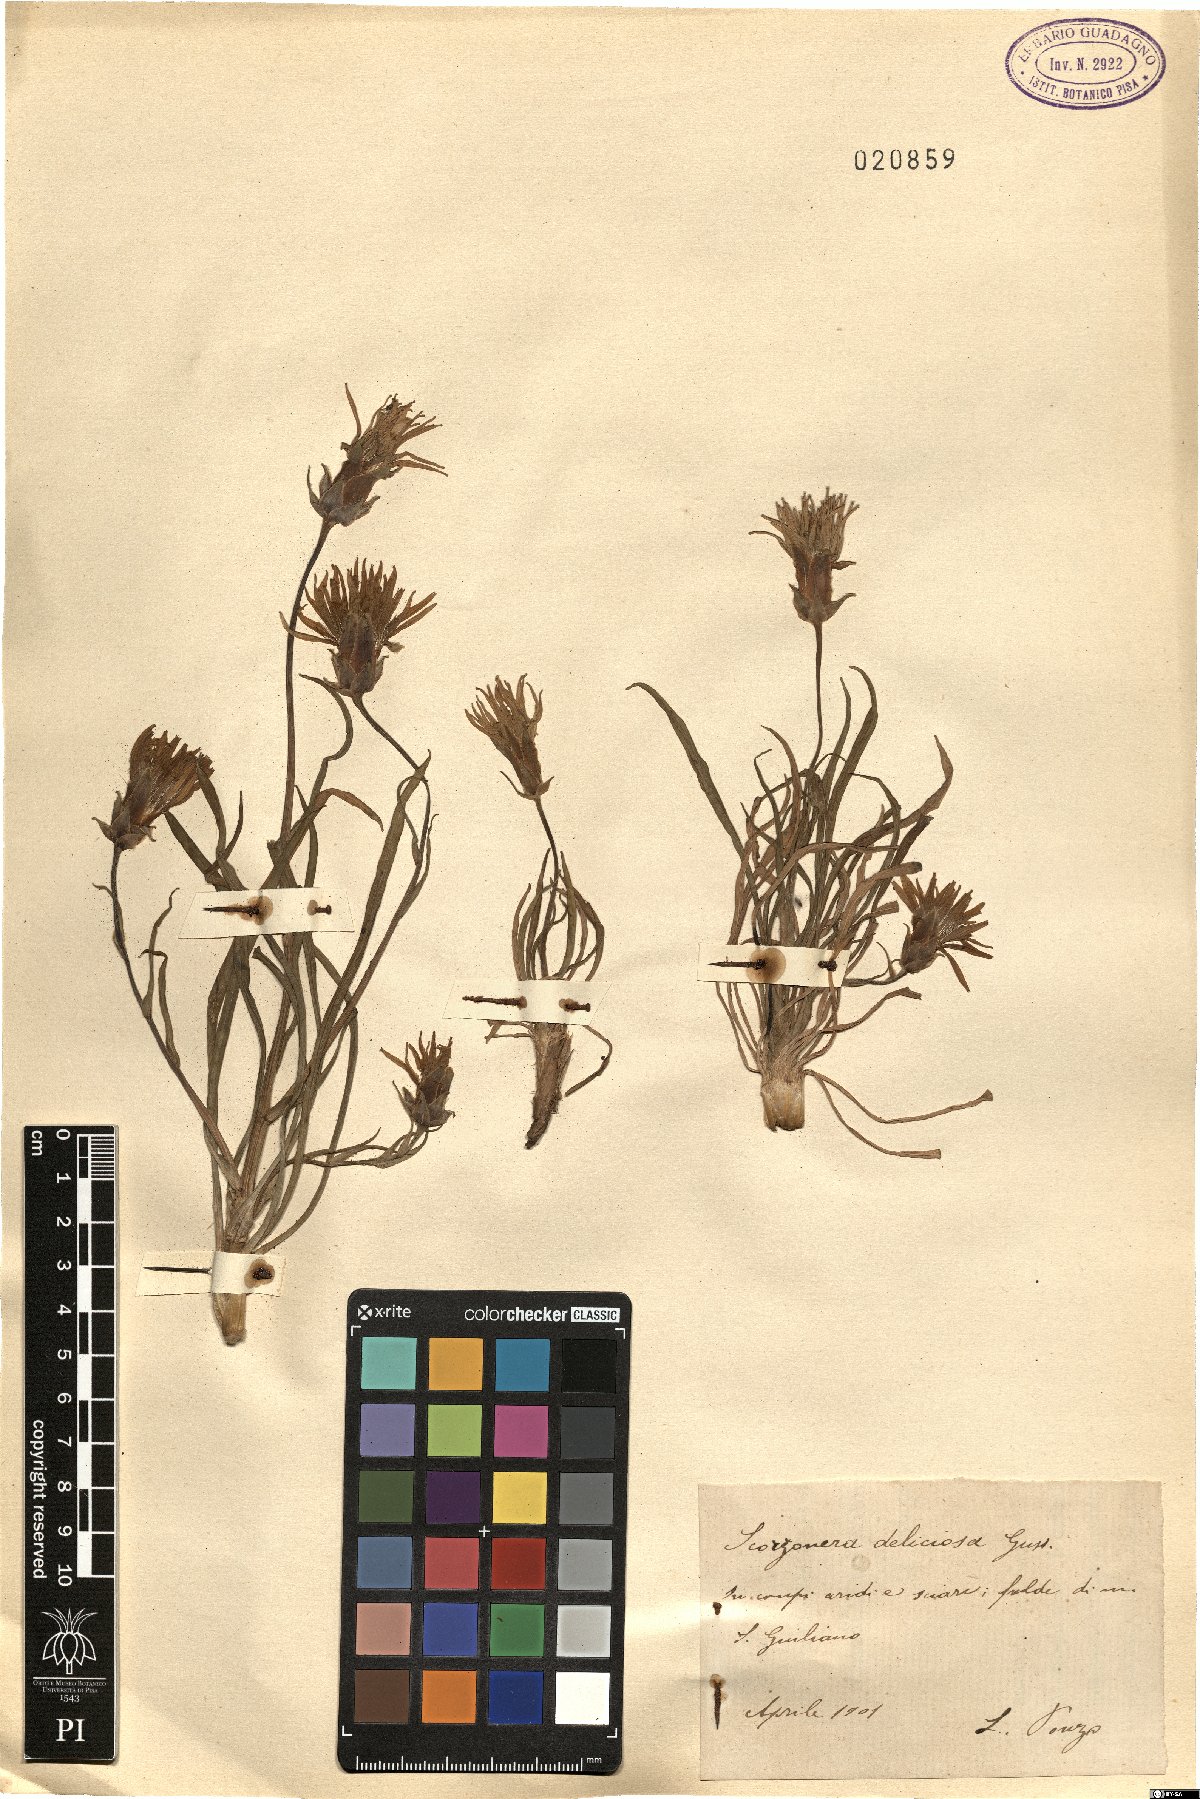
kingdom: Plantae
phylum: Tracheophyta
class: Magnoliopsida
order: Asterales
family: Asteraceae
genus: Pseudopodospermum
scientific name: Pseudopodospermum undulatum
